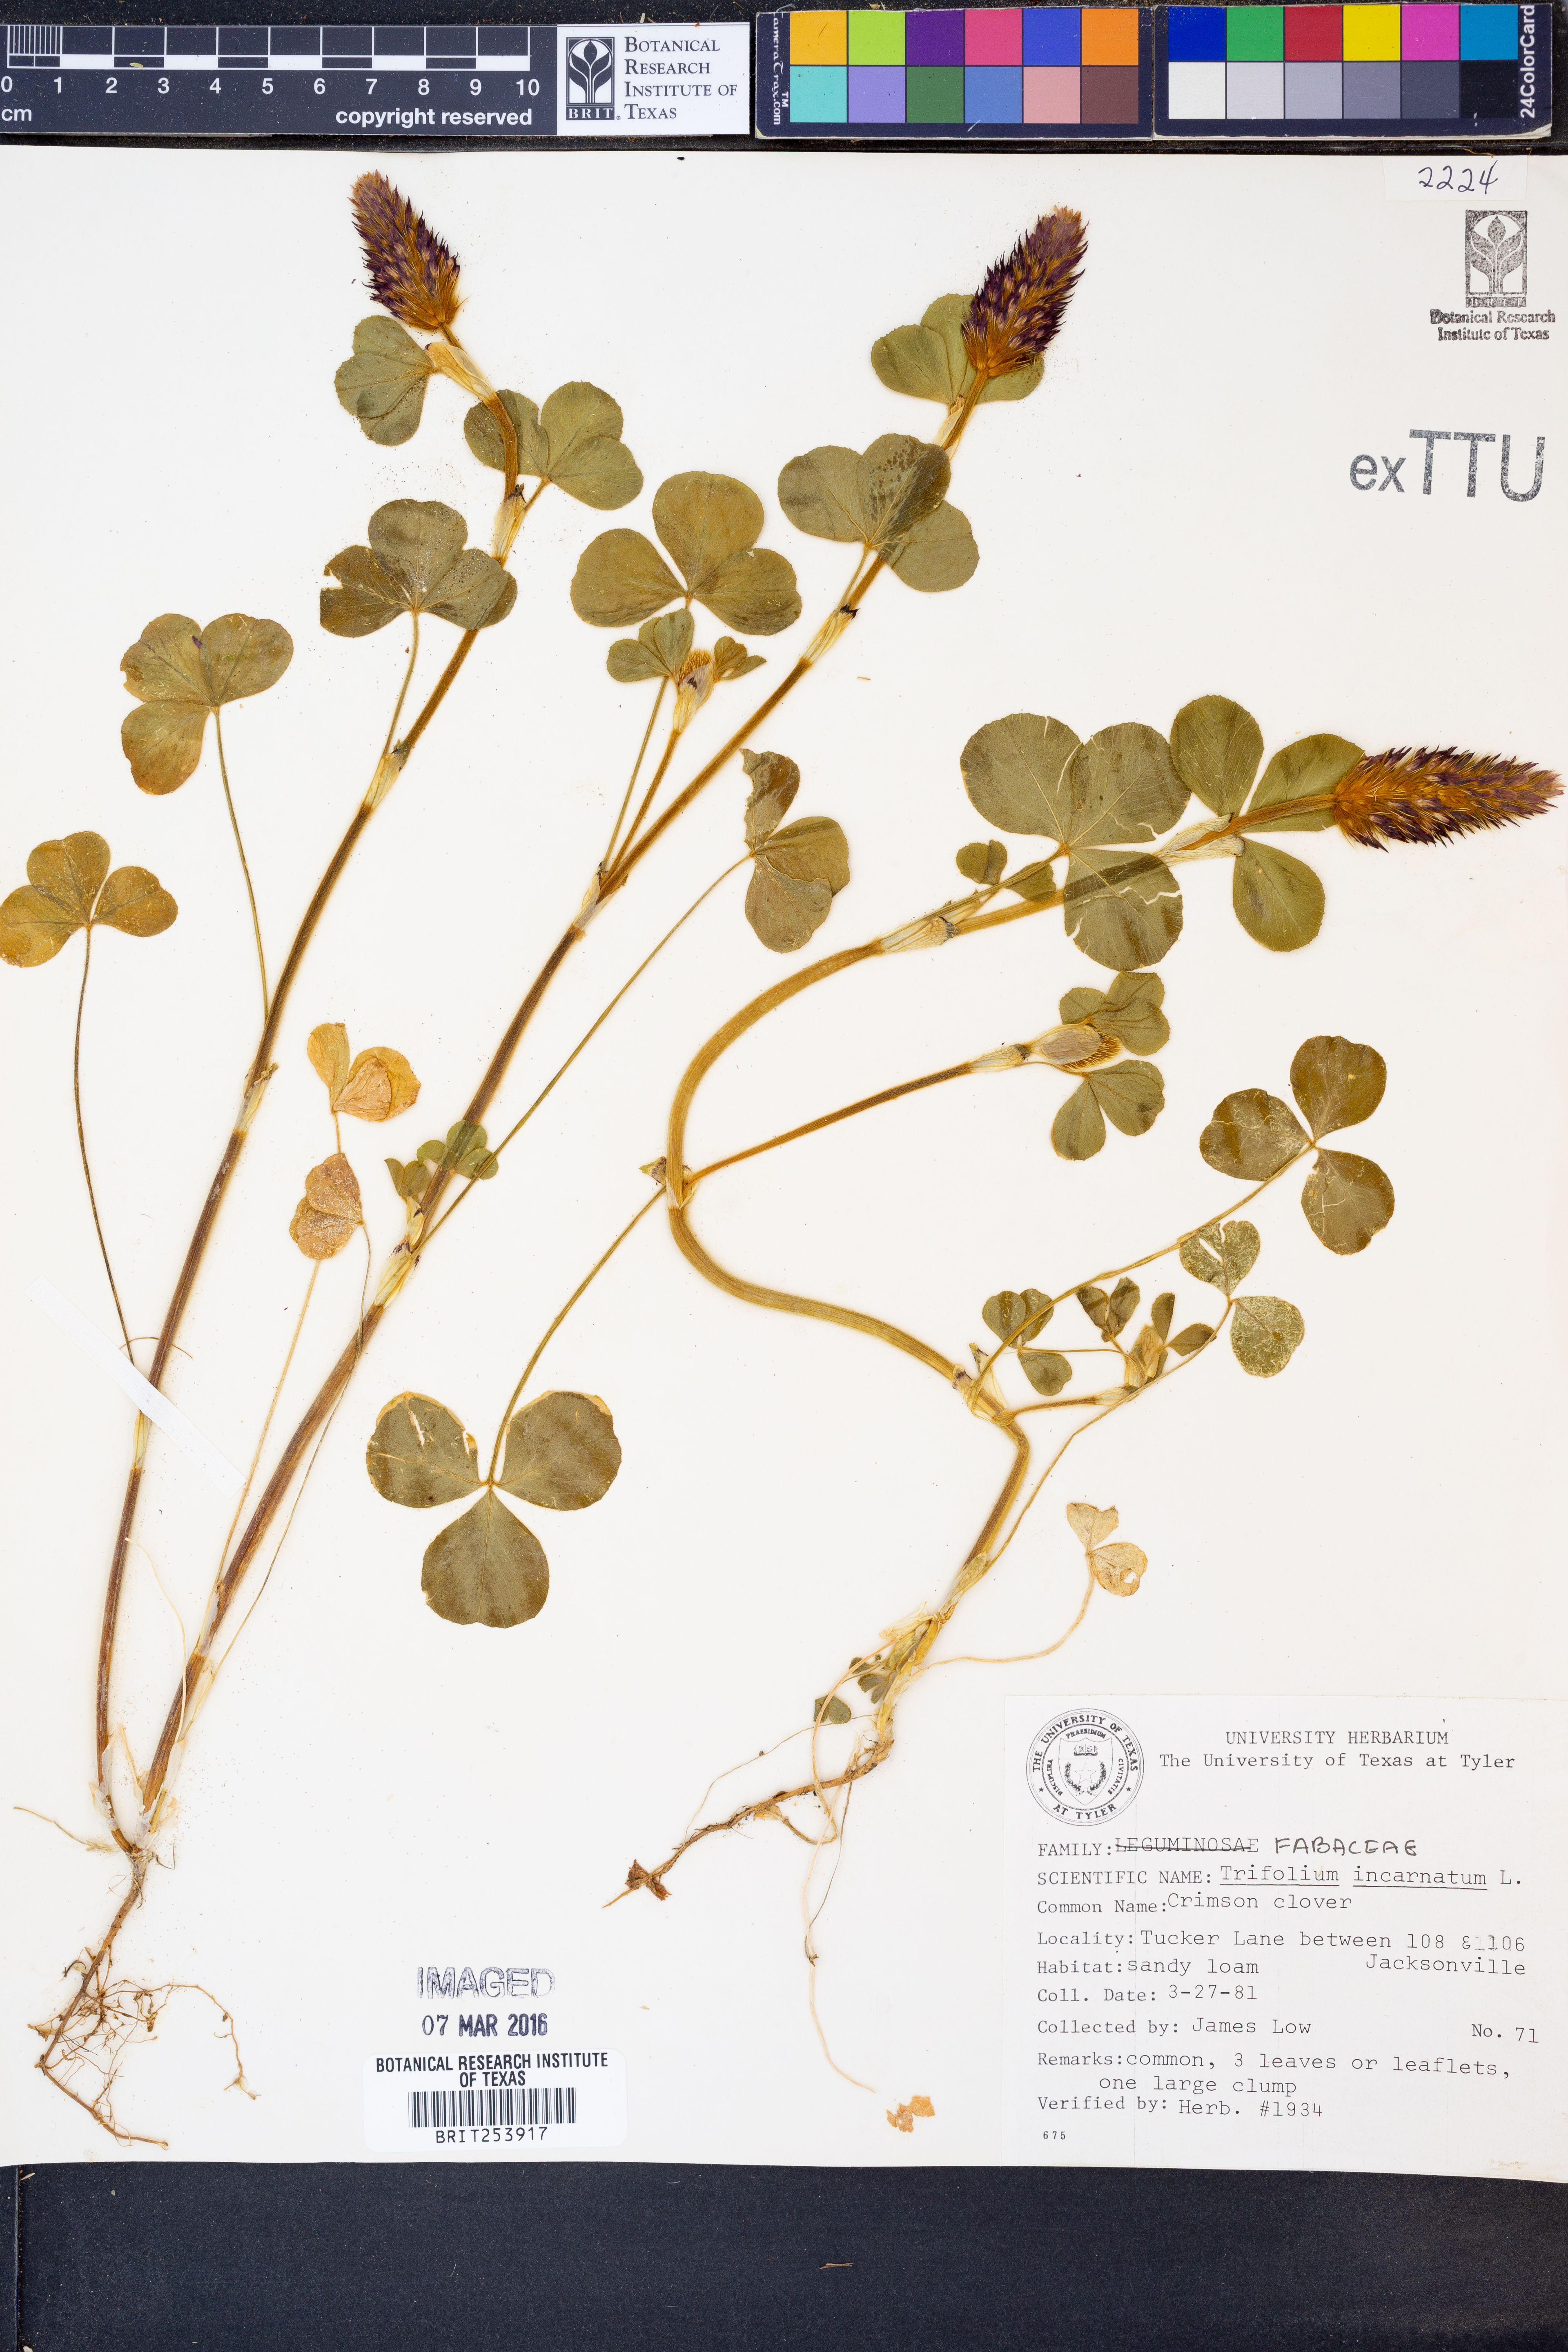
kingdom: Plantae
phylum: Tracheophyta
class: Magnoliopsida
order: Fabales
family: Fabaceae
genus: Trifolium
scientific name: Trifolium incarnatum
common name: Crimson clover
